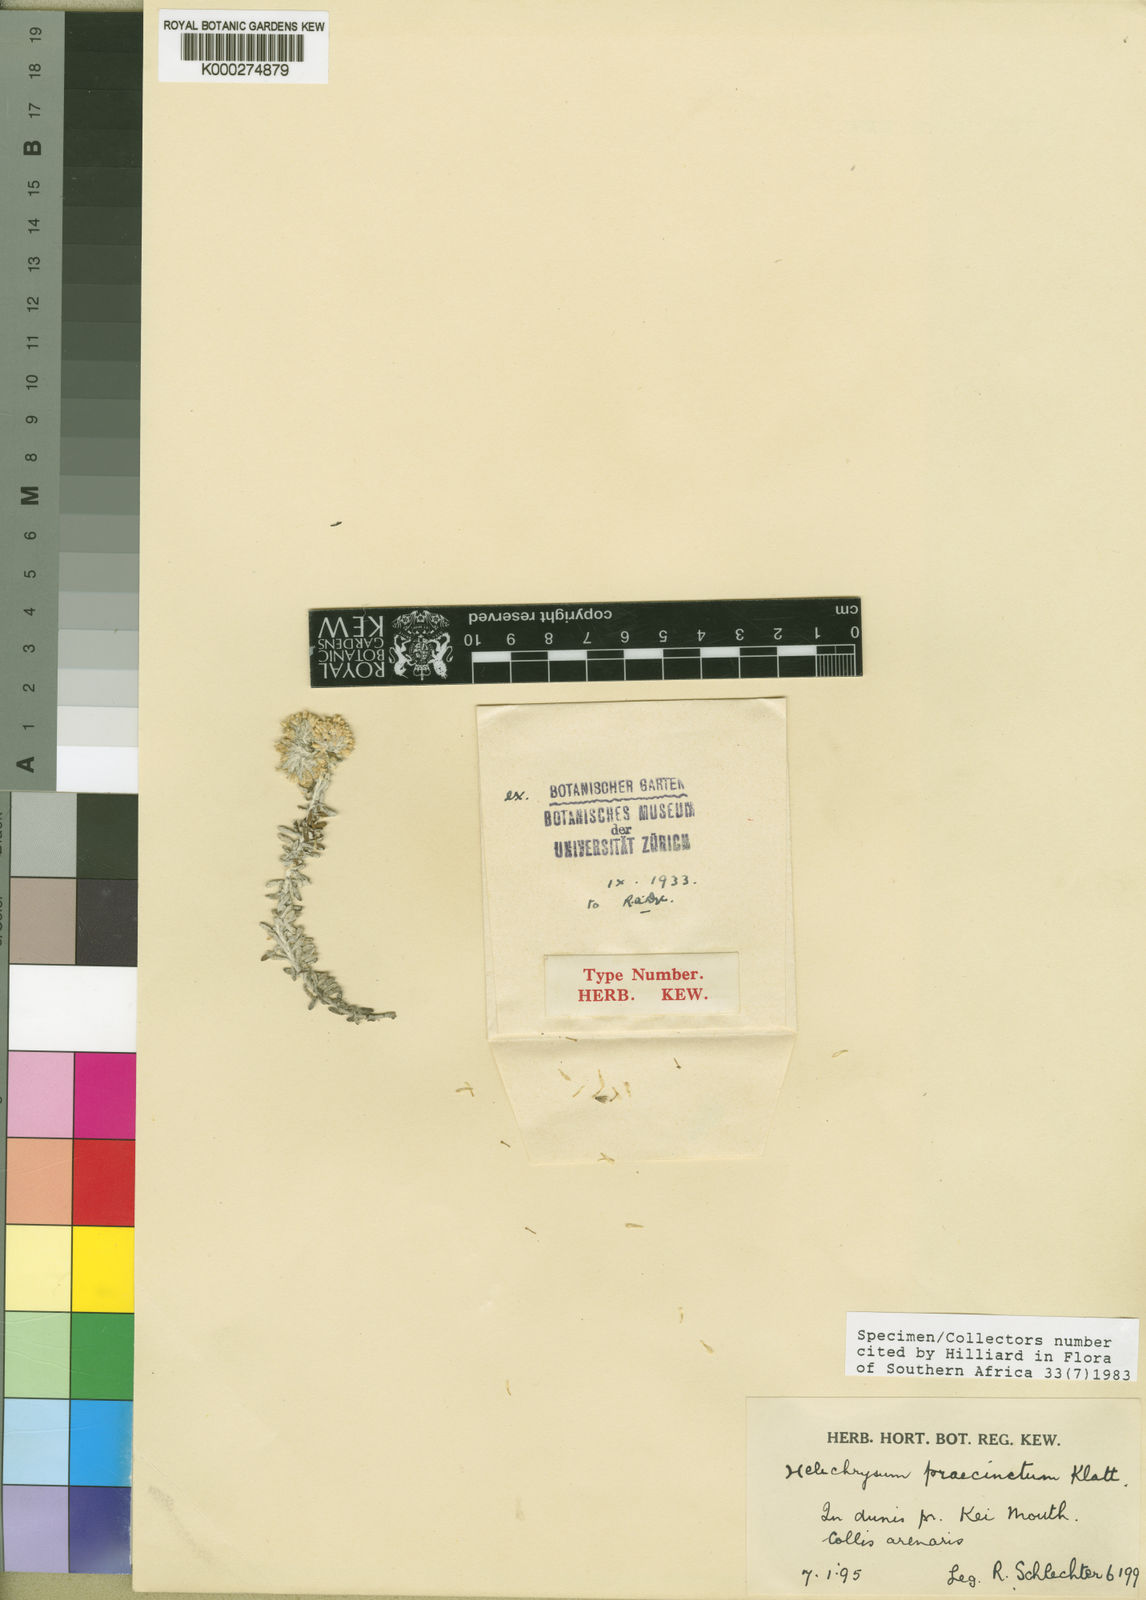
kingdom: Plantae
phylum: Tracheophyta
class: Magnoliopsida
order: Asterales
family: Asteraceae
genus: Helichrysum
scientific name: Helichrysum praecinctum
